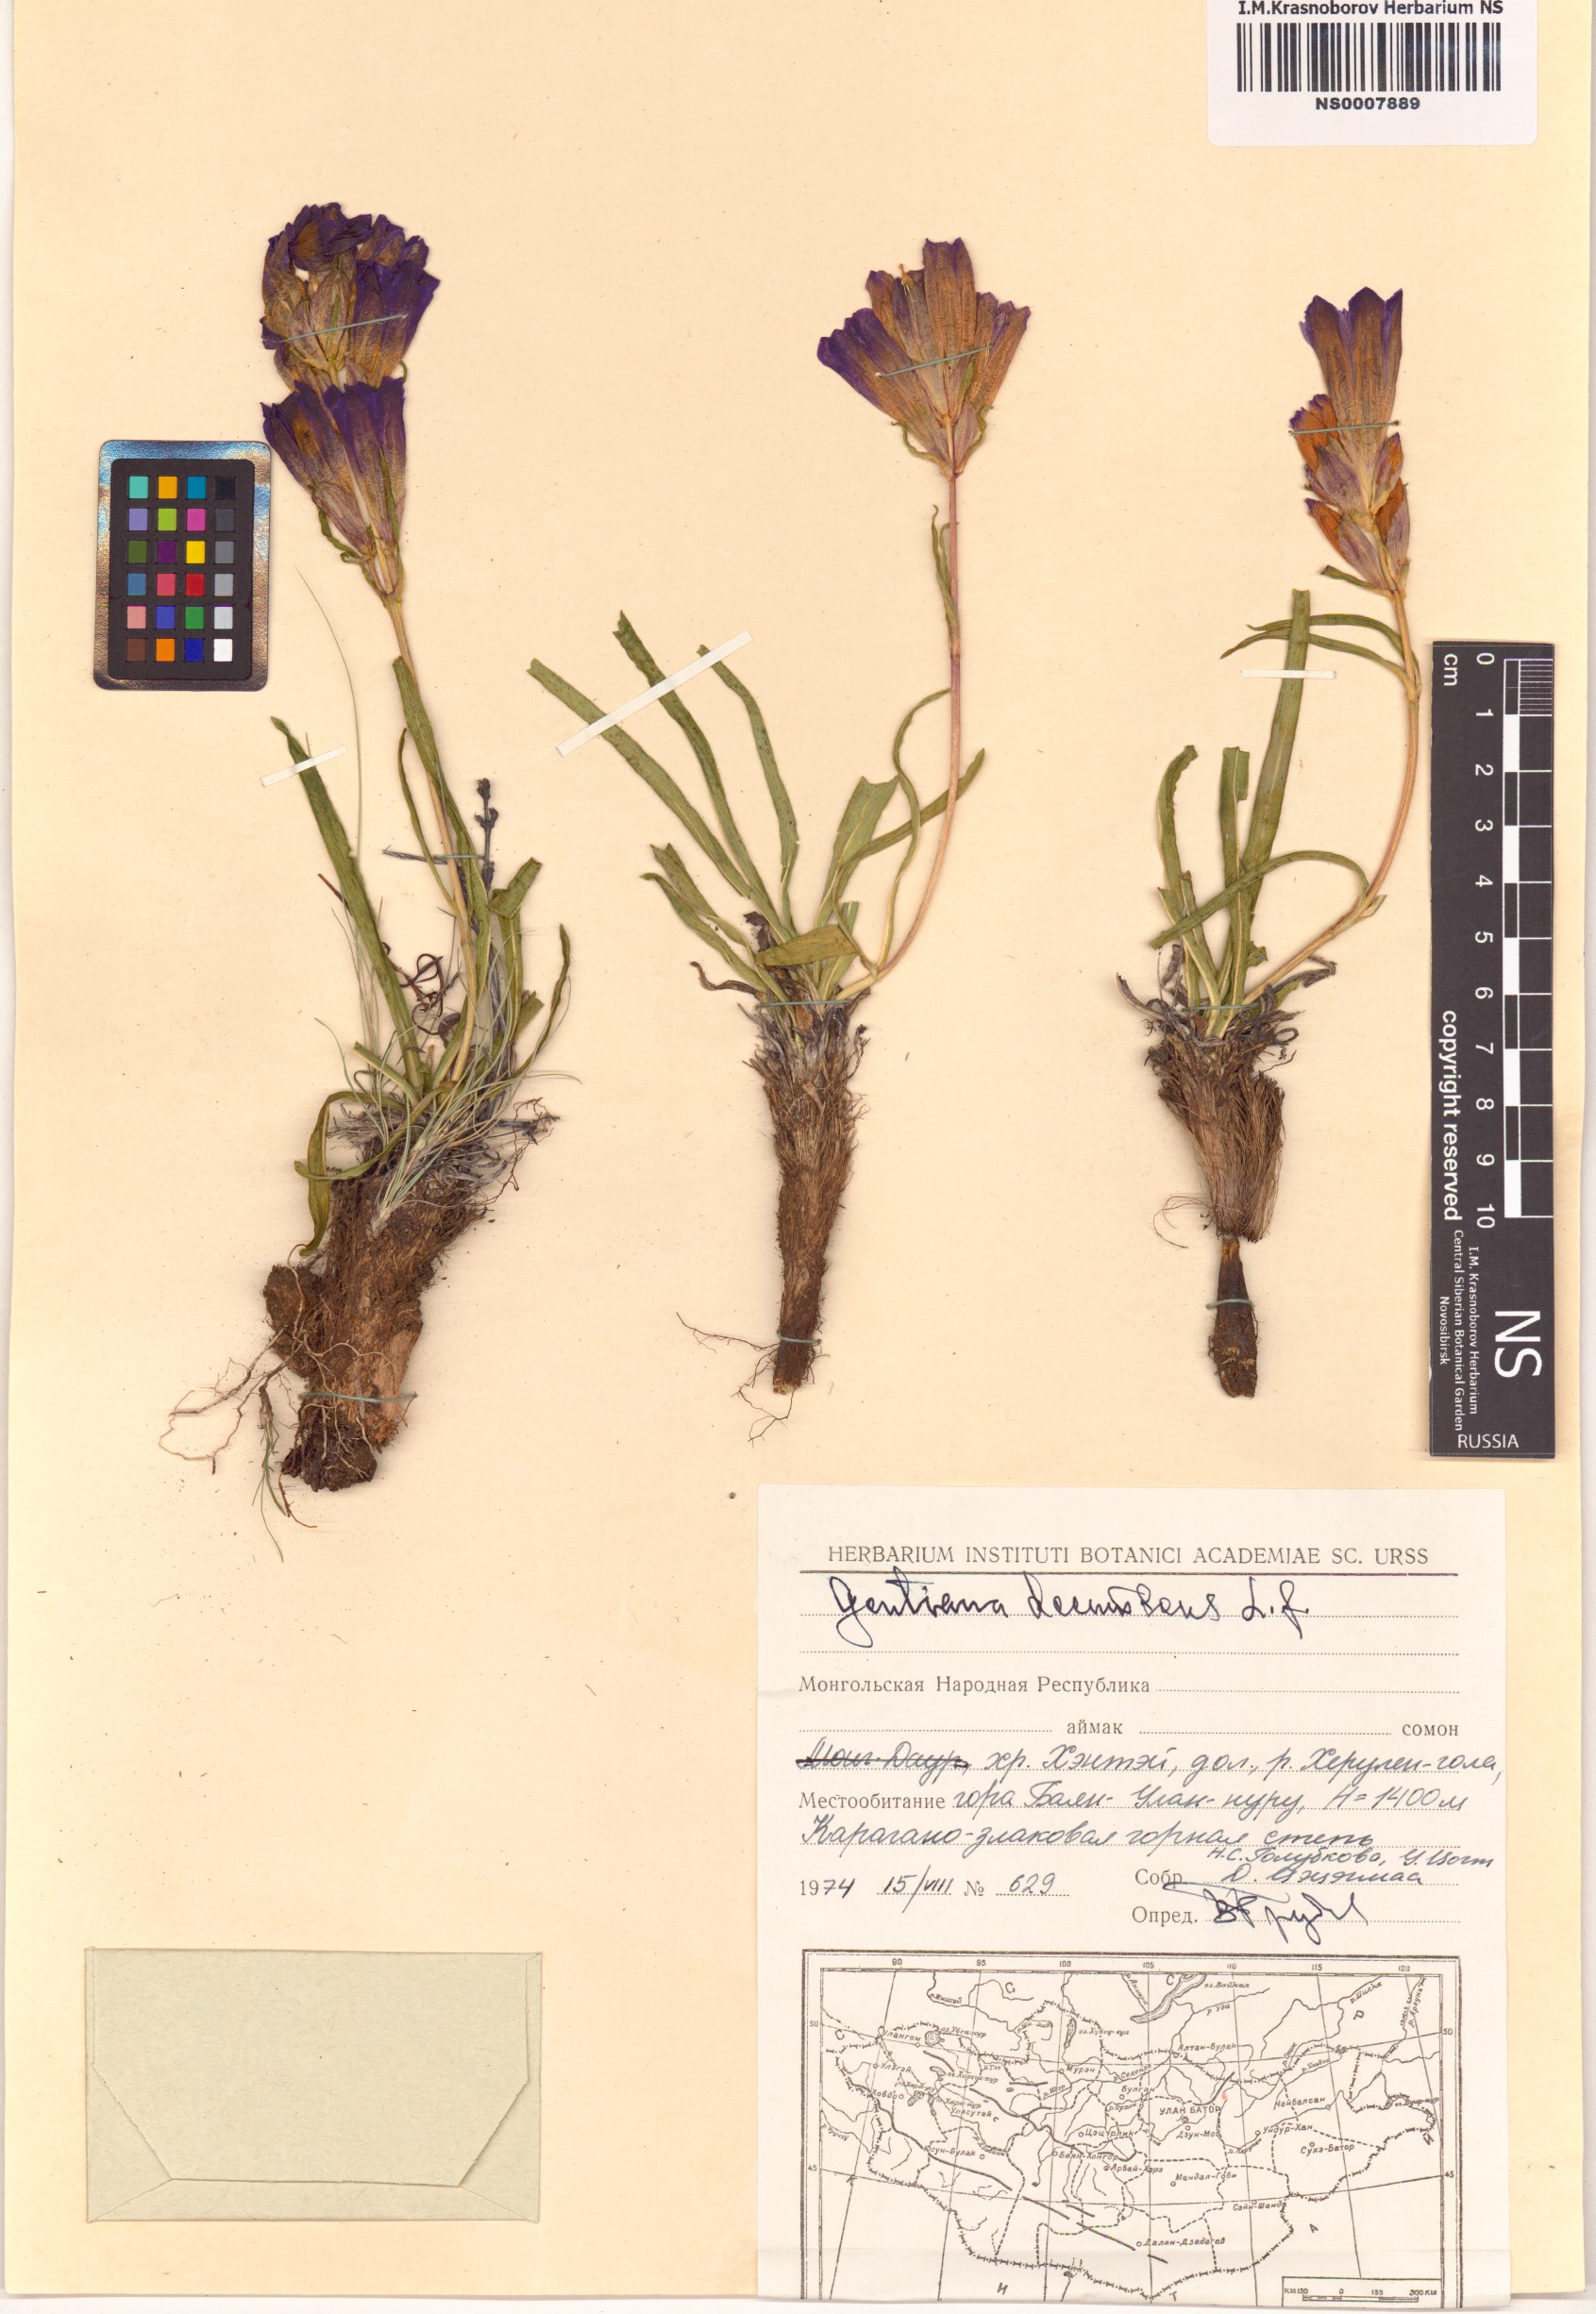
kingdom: Plantae
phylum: Tracheophyta
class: Magnoliopsida
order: Gentianales
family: Gentianaceae
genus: Gentiana
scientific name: Gentiana decumbens
